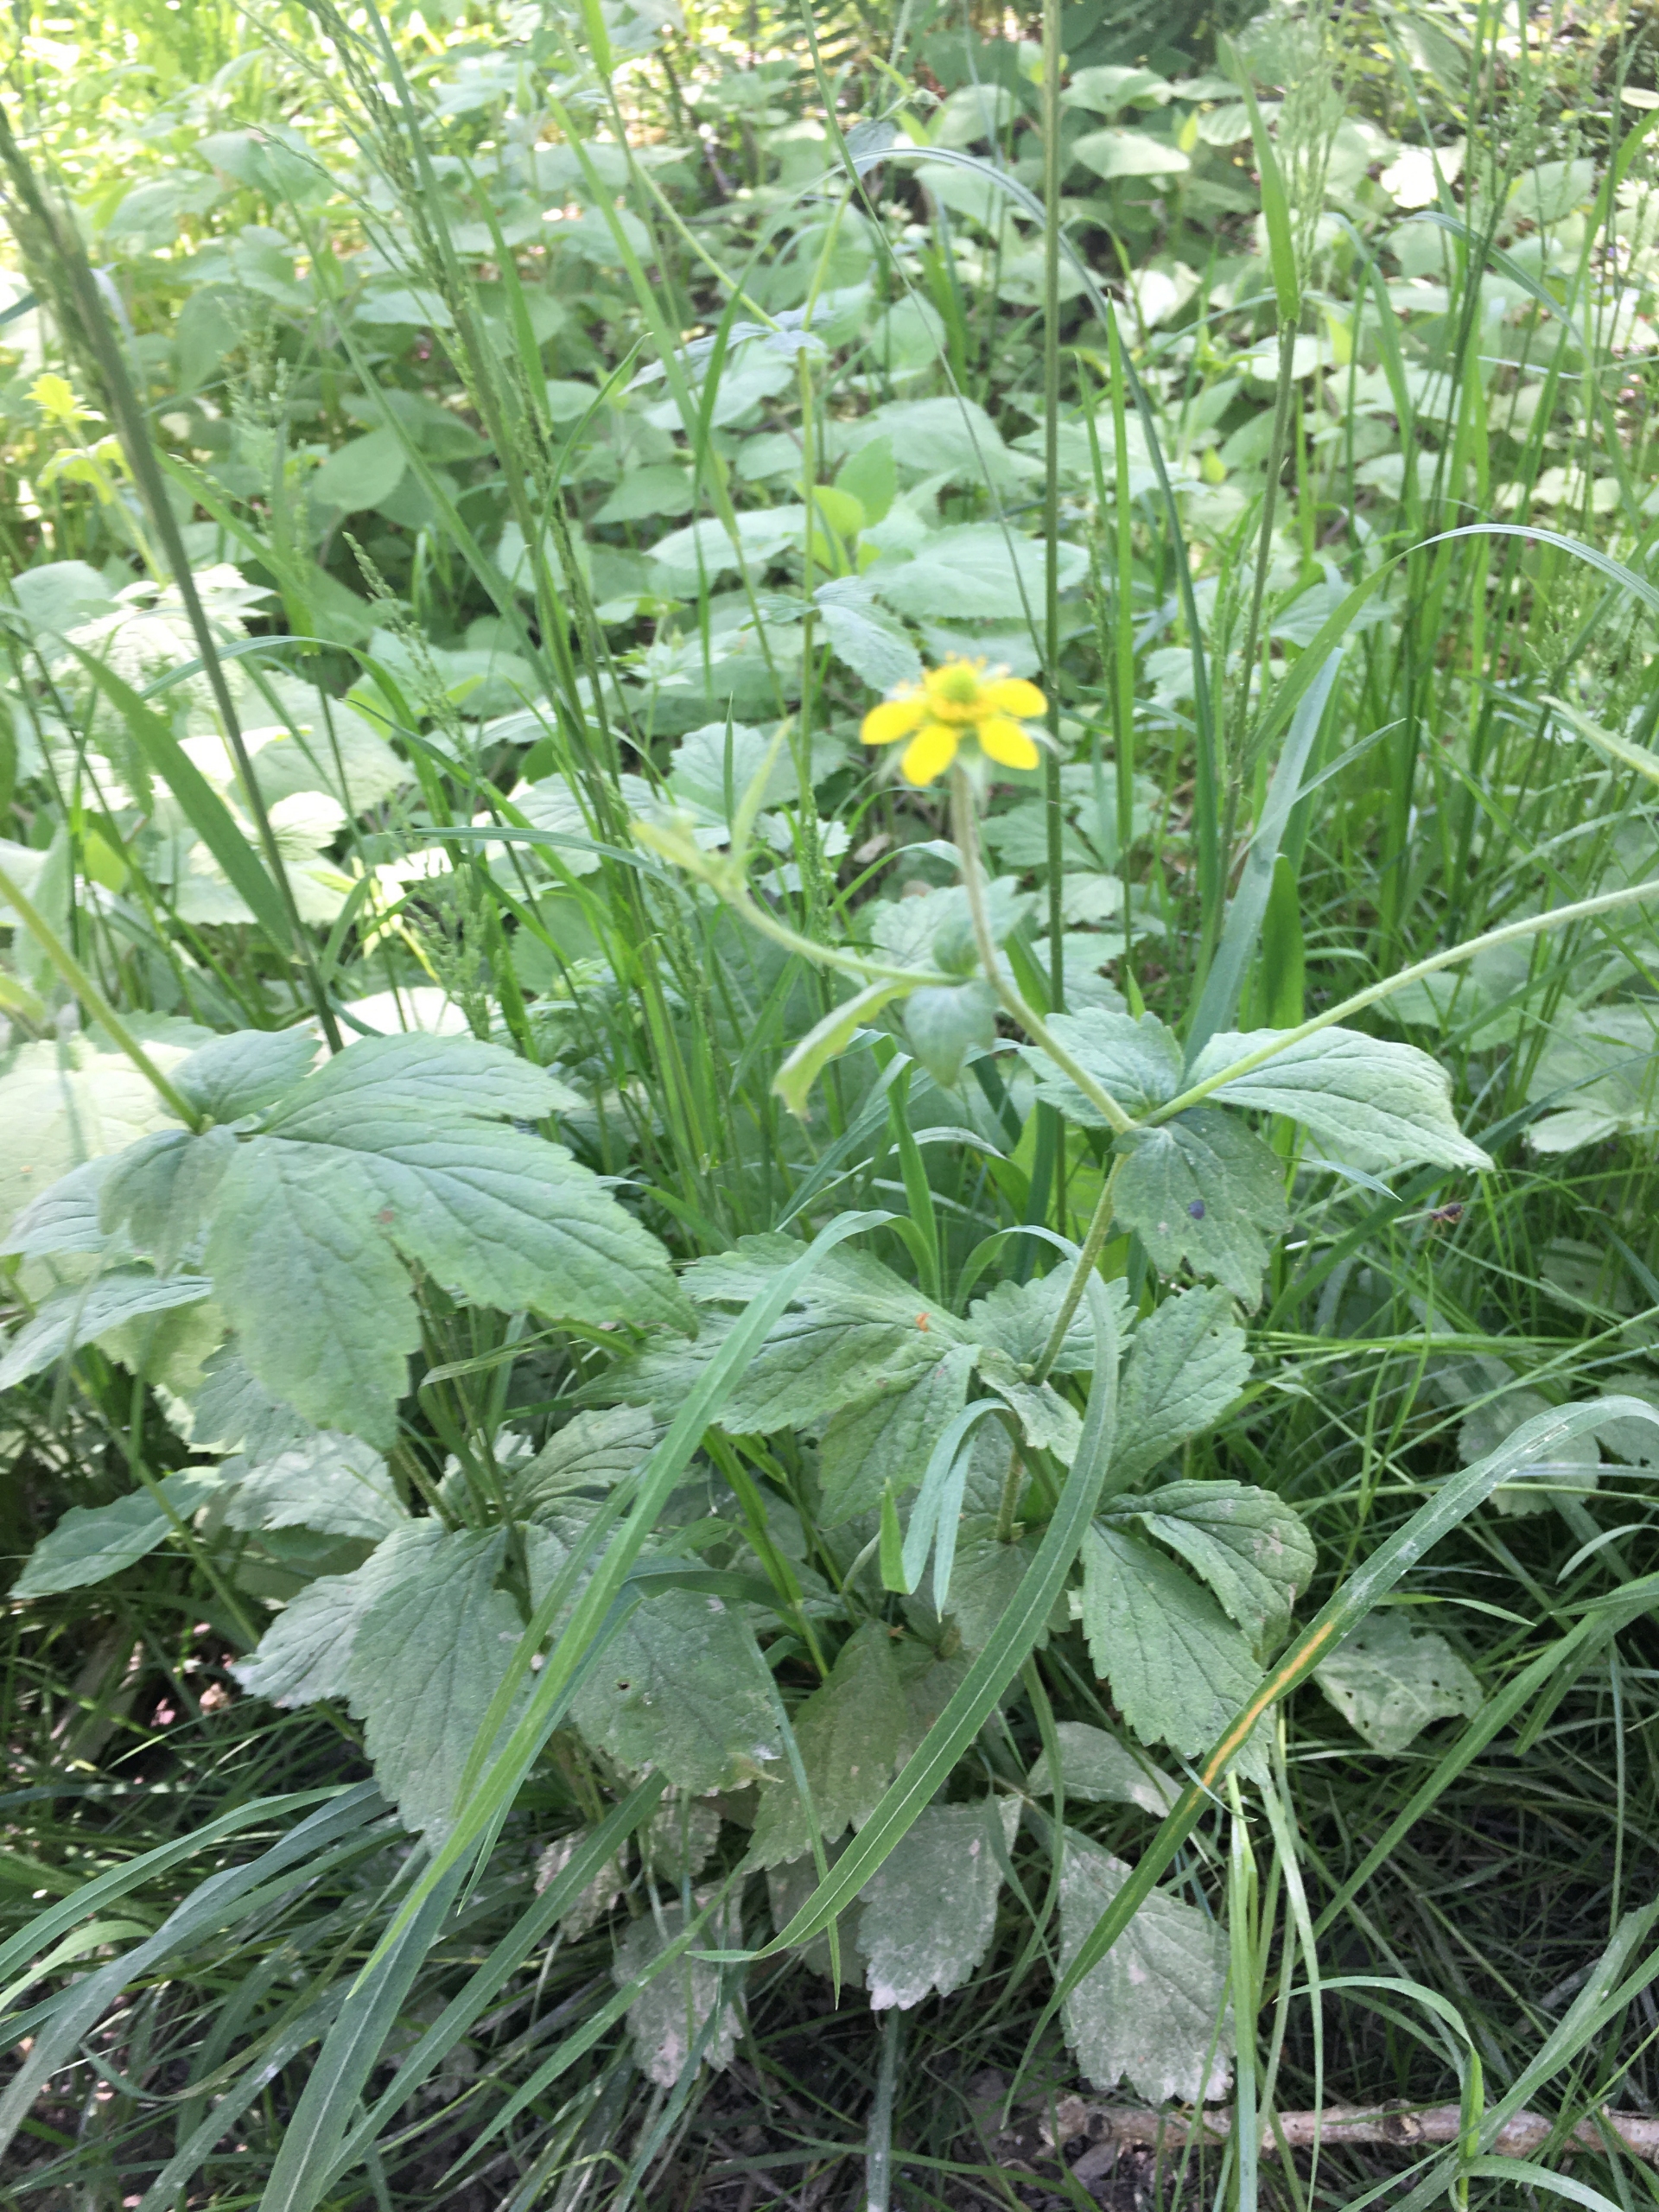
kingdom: Plantae
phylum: Tracheophyta
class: Magnoliopsida
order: Rosales
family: Rosaceae
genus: Geum
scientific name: Geum urbanum
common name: Feber-nellikerod
